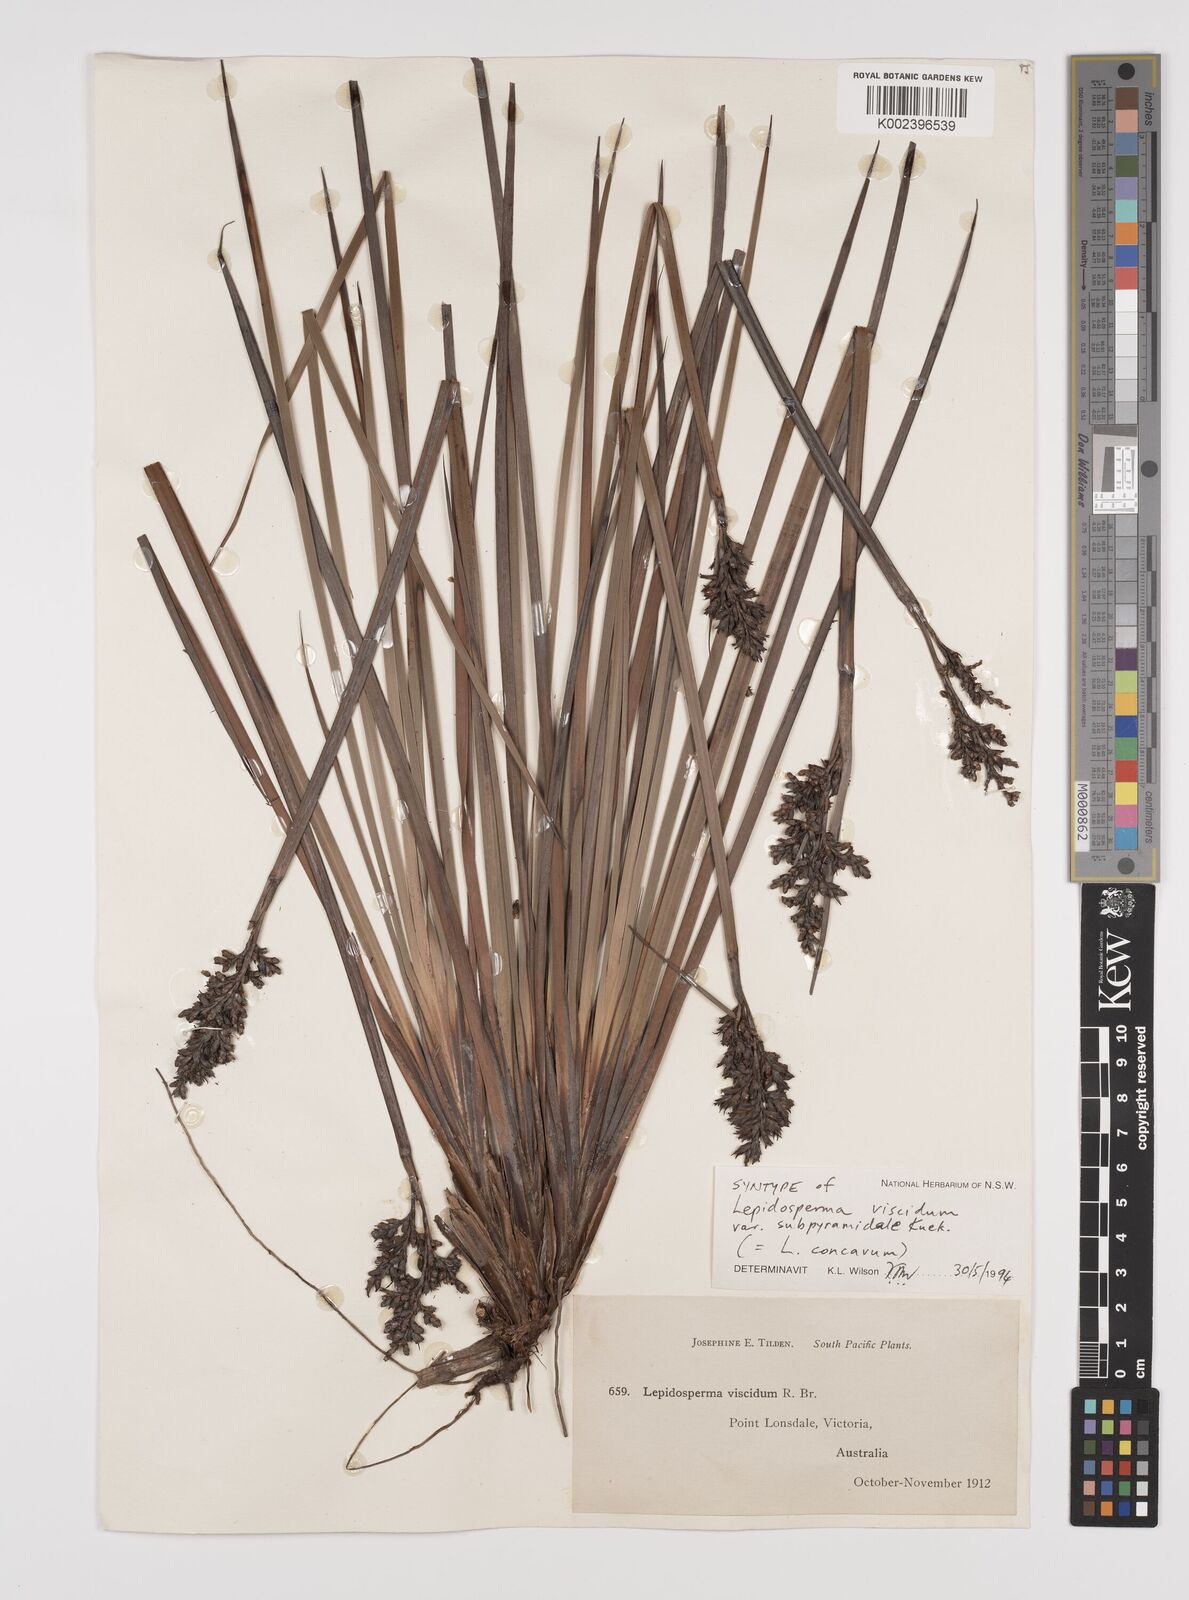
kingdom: Plantae
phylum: Tracheophyta
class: Liliopsida
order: Poales
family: Cyperaceae
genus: Lepidosperma
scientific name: Lepidosperma concavum
